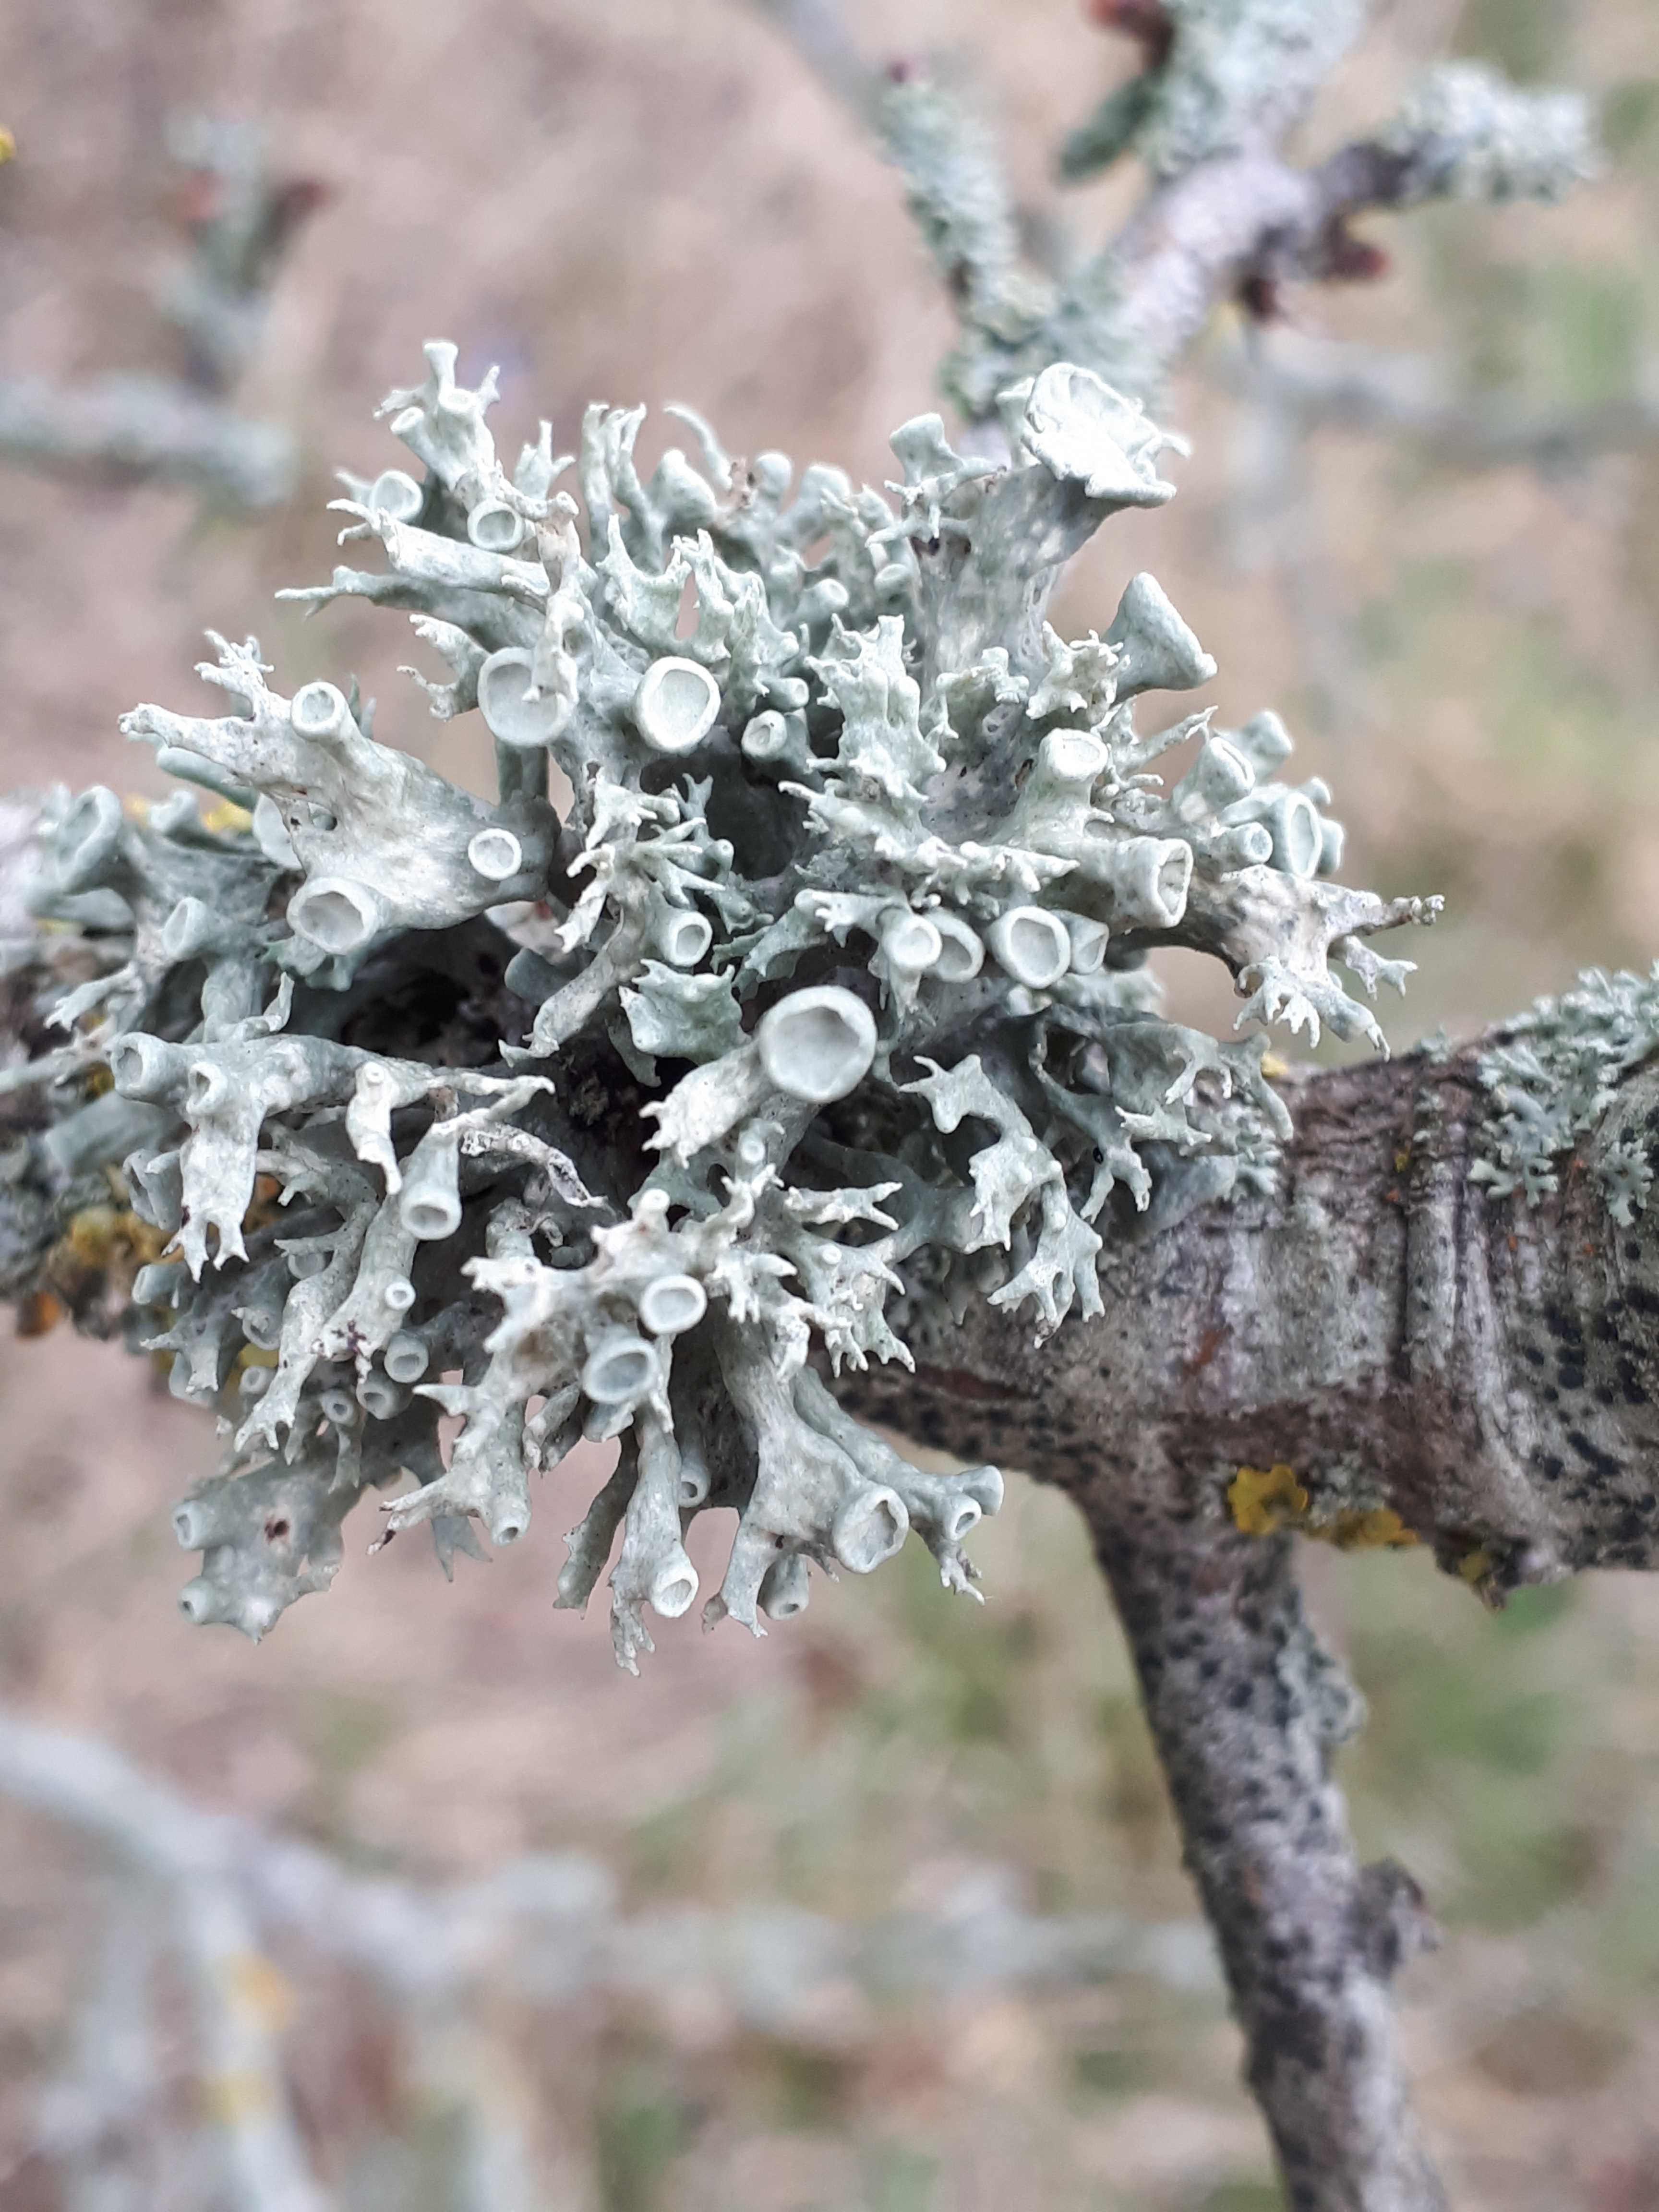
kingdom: Fungi
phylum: Ascomycota
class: Lecanoromycetes
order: Lecanorales
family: Ramalinaceae
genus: Ramalina
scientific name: Ramalina fastigiata
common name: tue-grenlav
